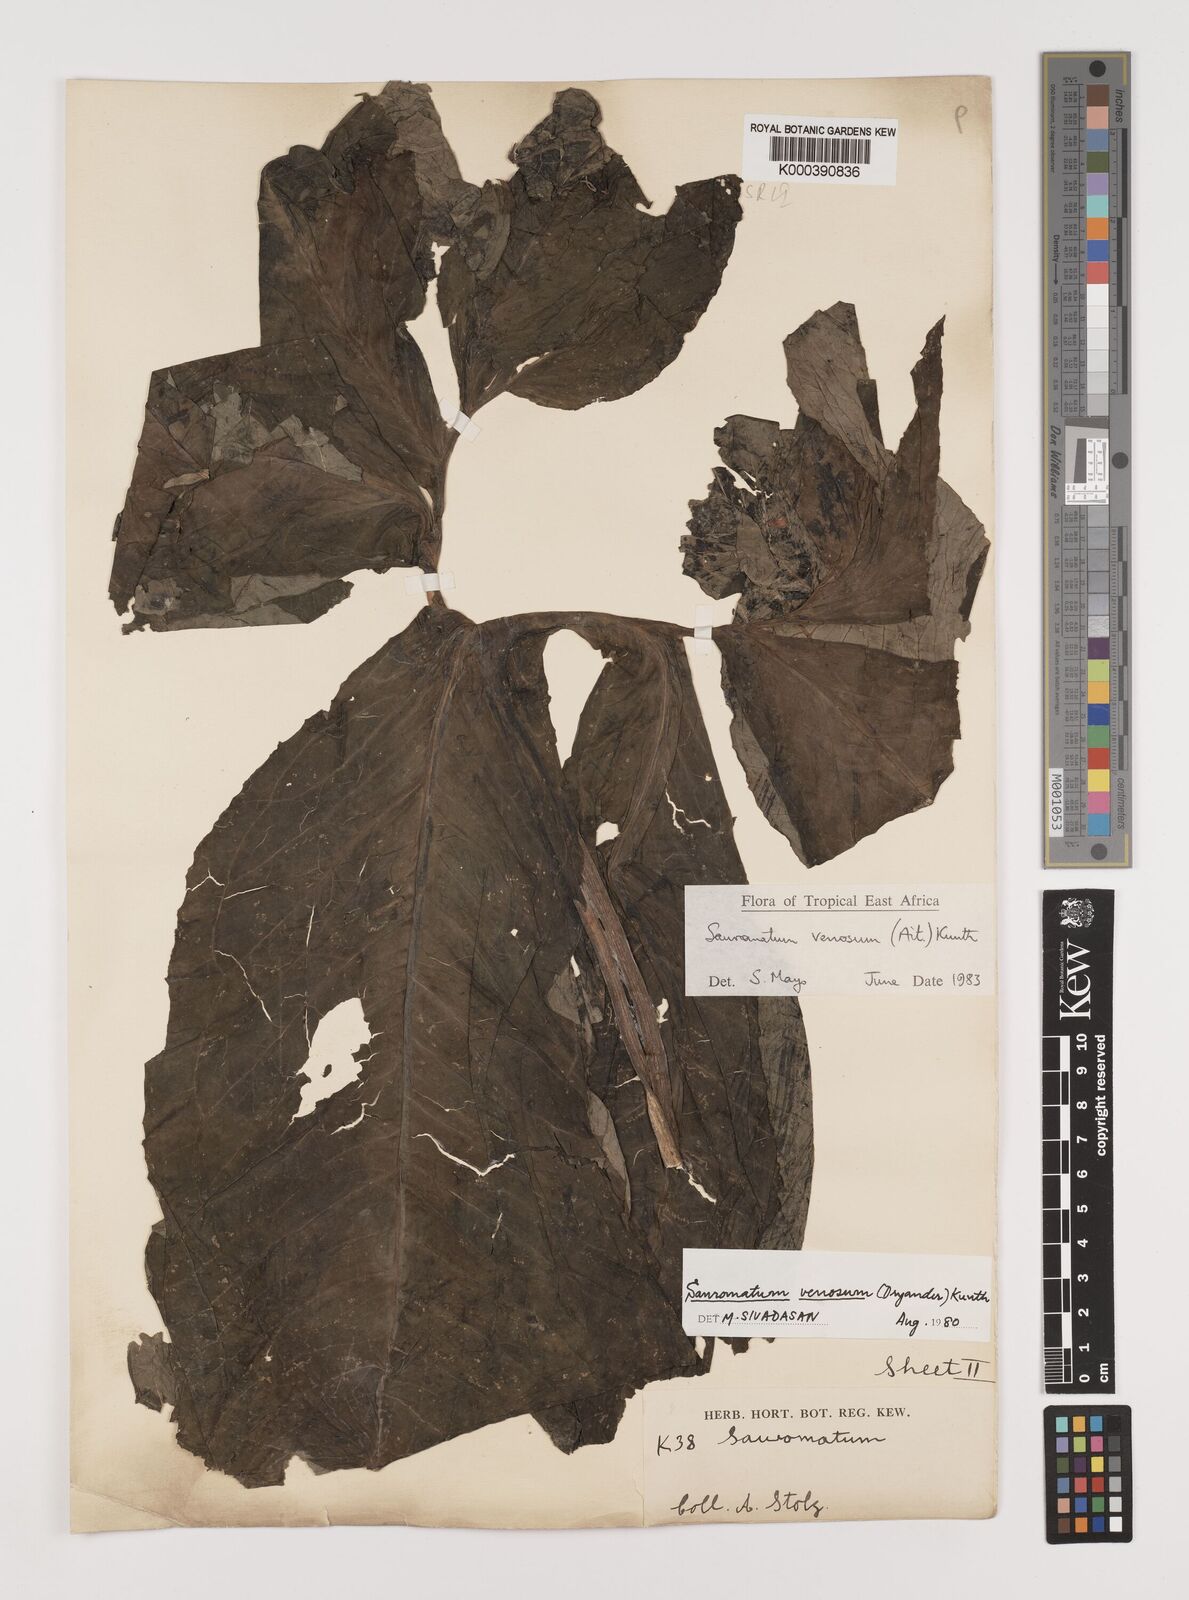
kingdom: Plantae
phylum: Tracheophyta
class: Liliopsida
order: Alismatales
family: Araceae
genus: Sauromatum
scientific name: Sauromatum venosum
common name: Voodoo lily
